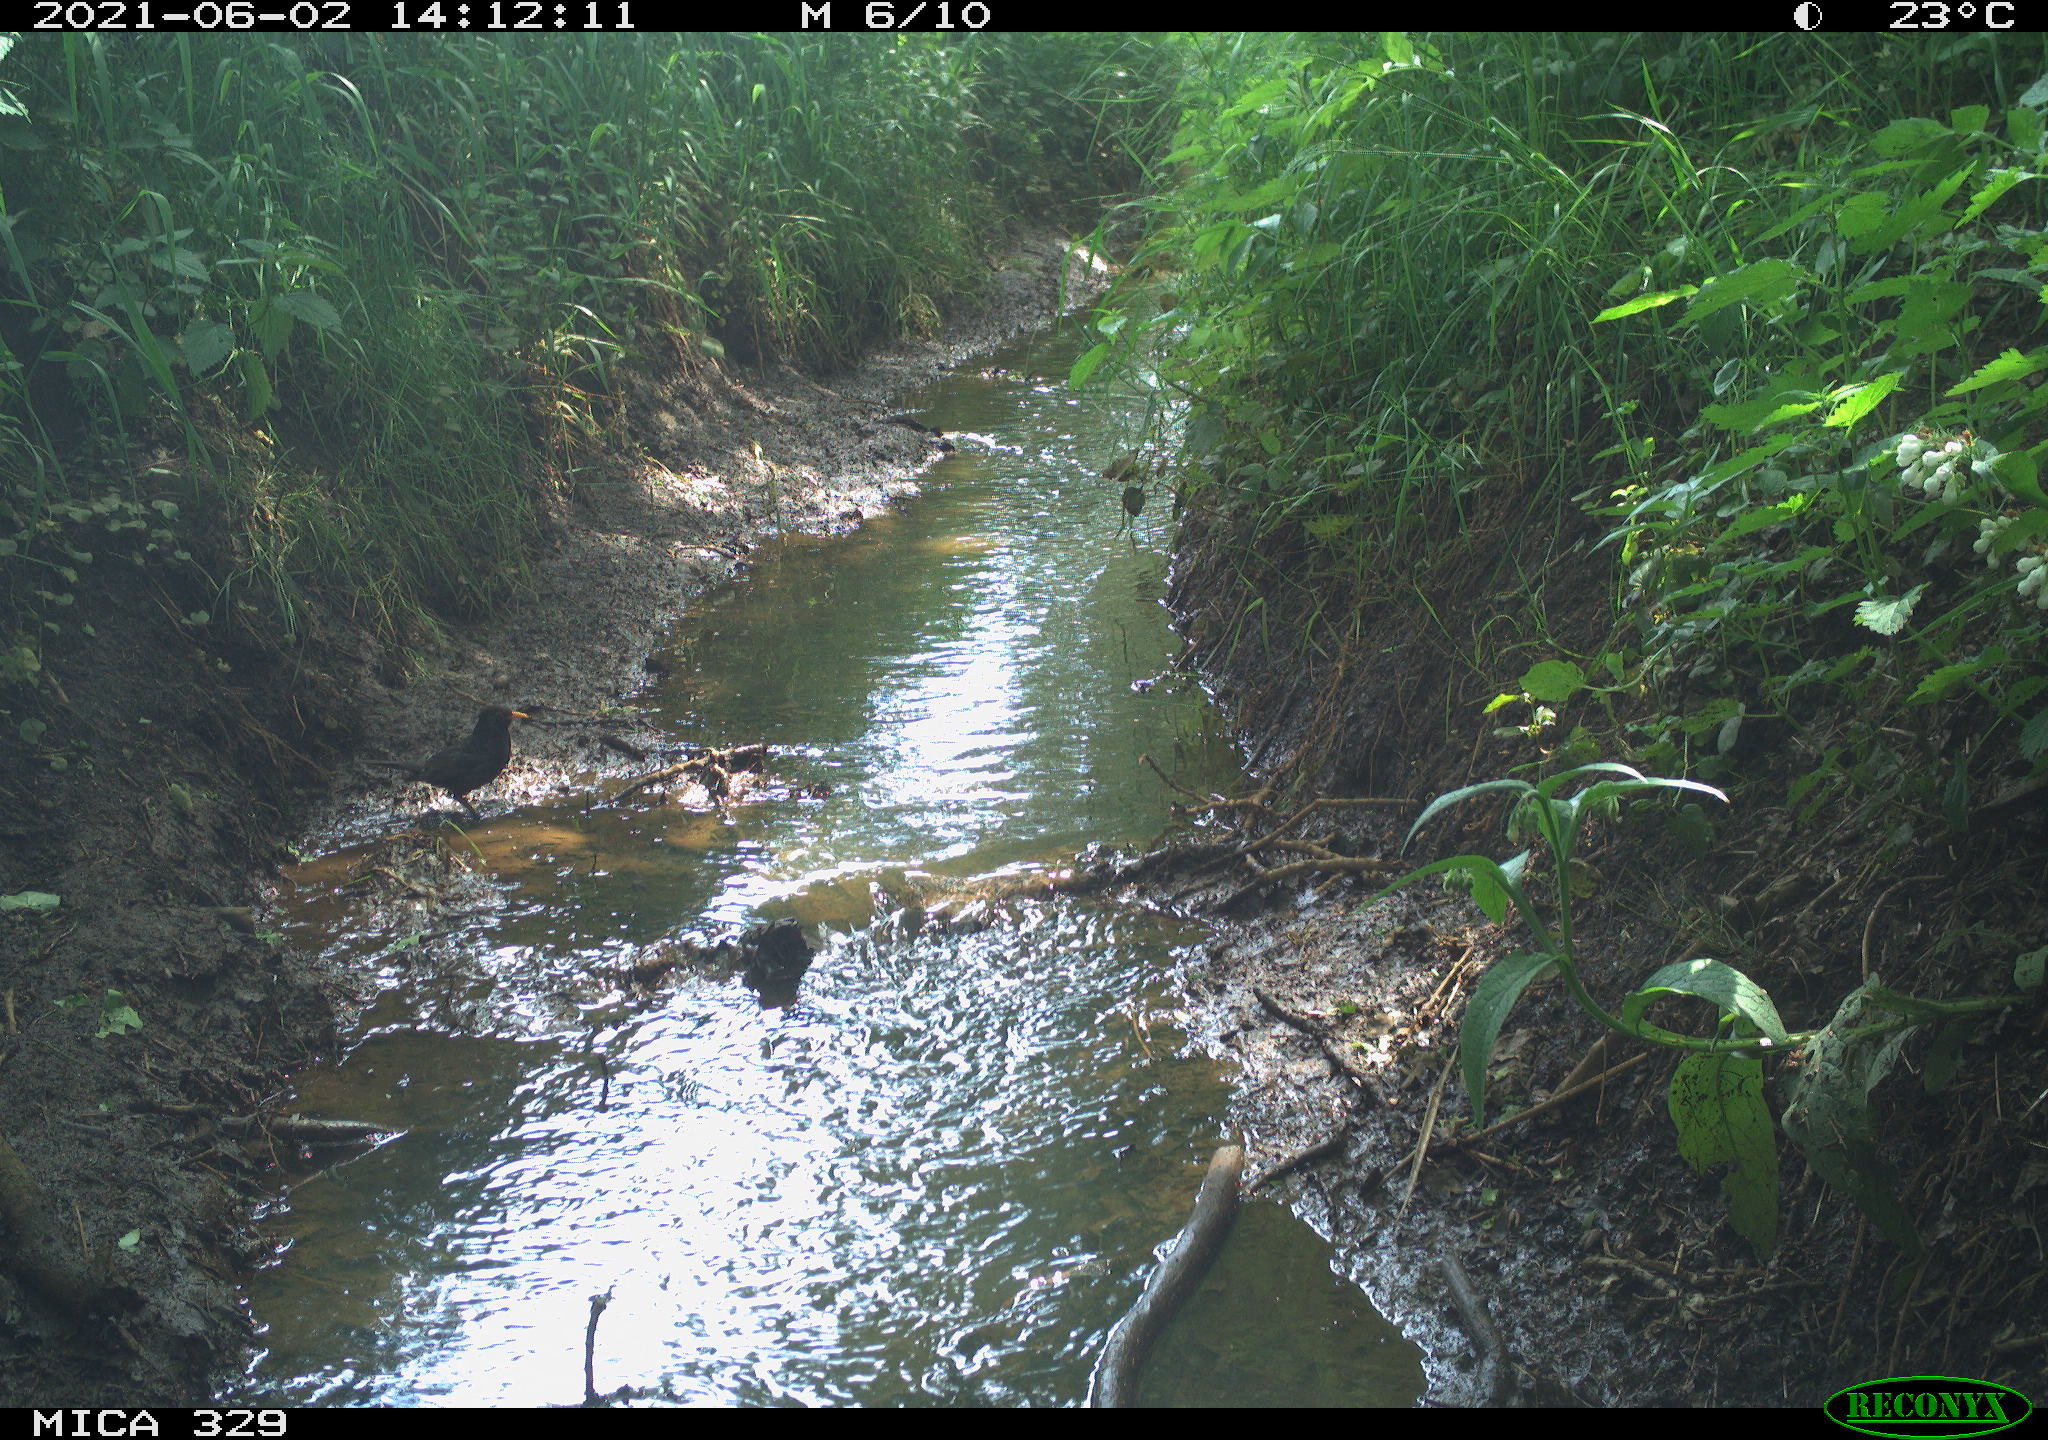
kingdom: Animalia
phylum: Chordata
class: Aves
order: Passeriformes
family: Turdidae
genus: Turdus
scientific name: Turdus merula
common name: Common blackbird
